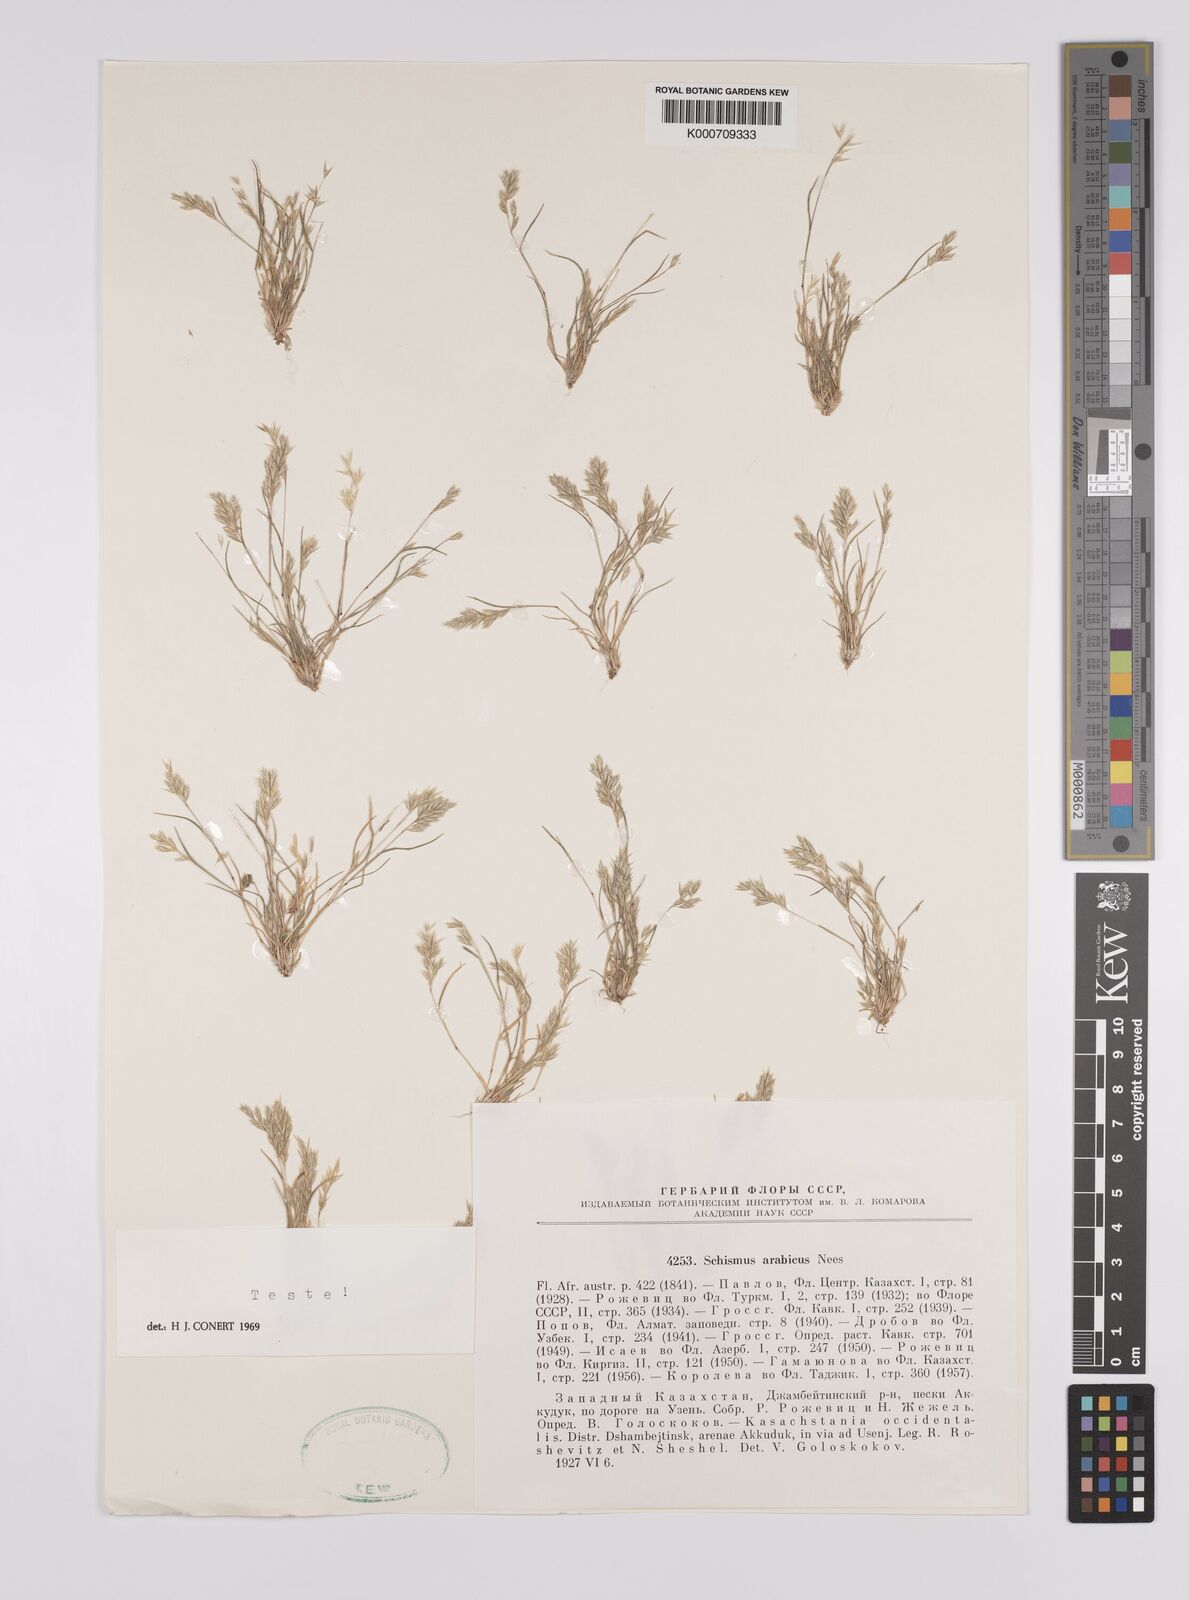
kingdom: Plantae
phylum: Tracheophyta
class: Liliopsida
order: Poales
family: Poaceae
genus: Schismus
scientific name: Schismus arabicus
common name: Arabian schismus
